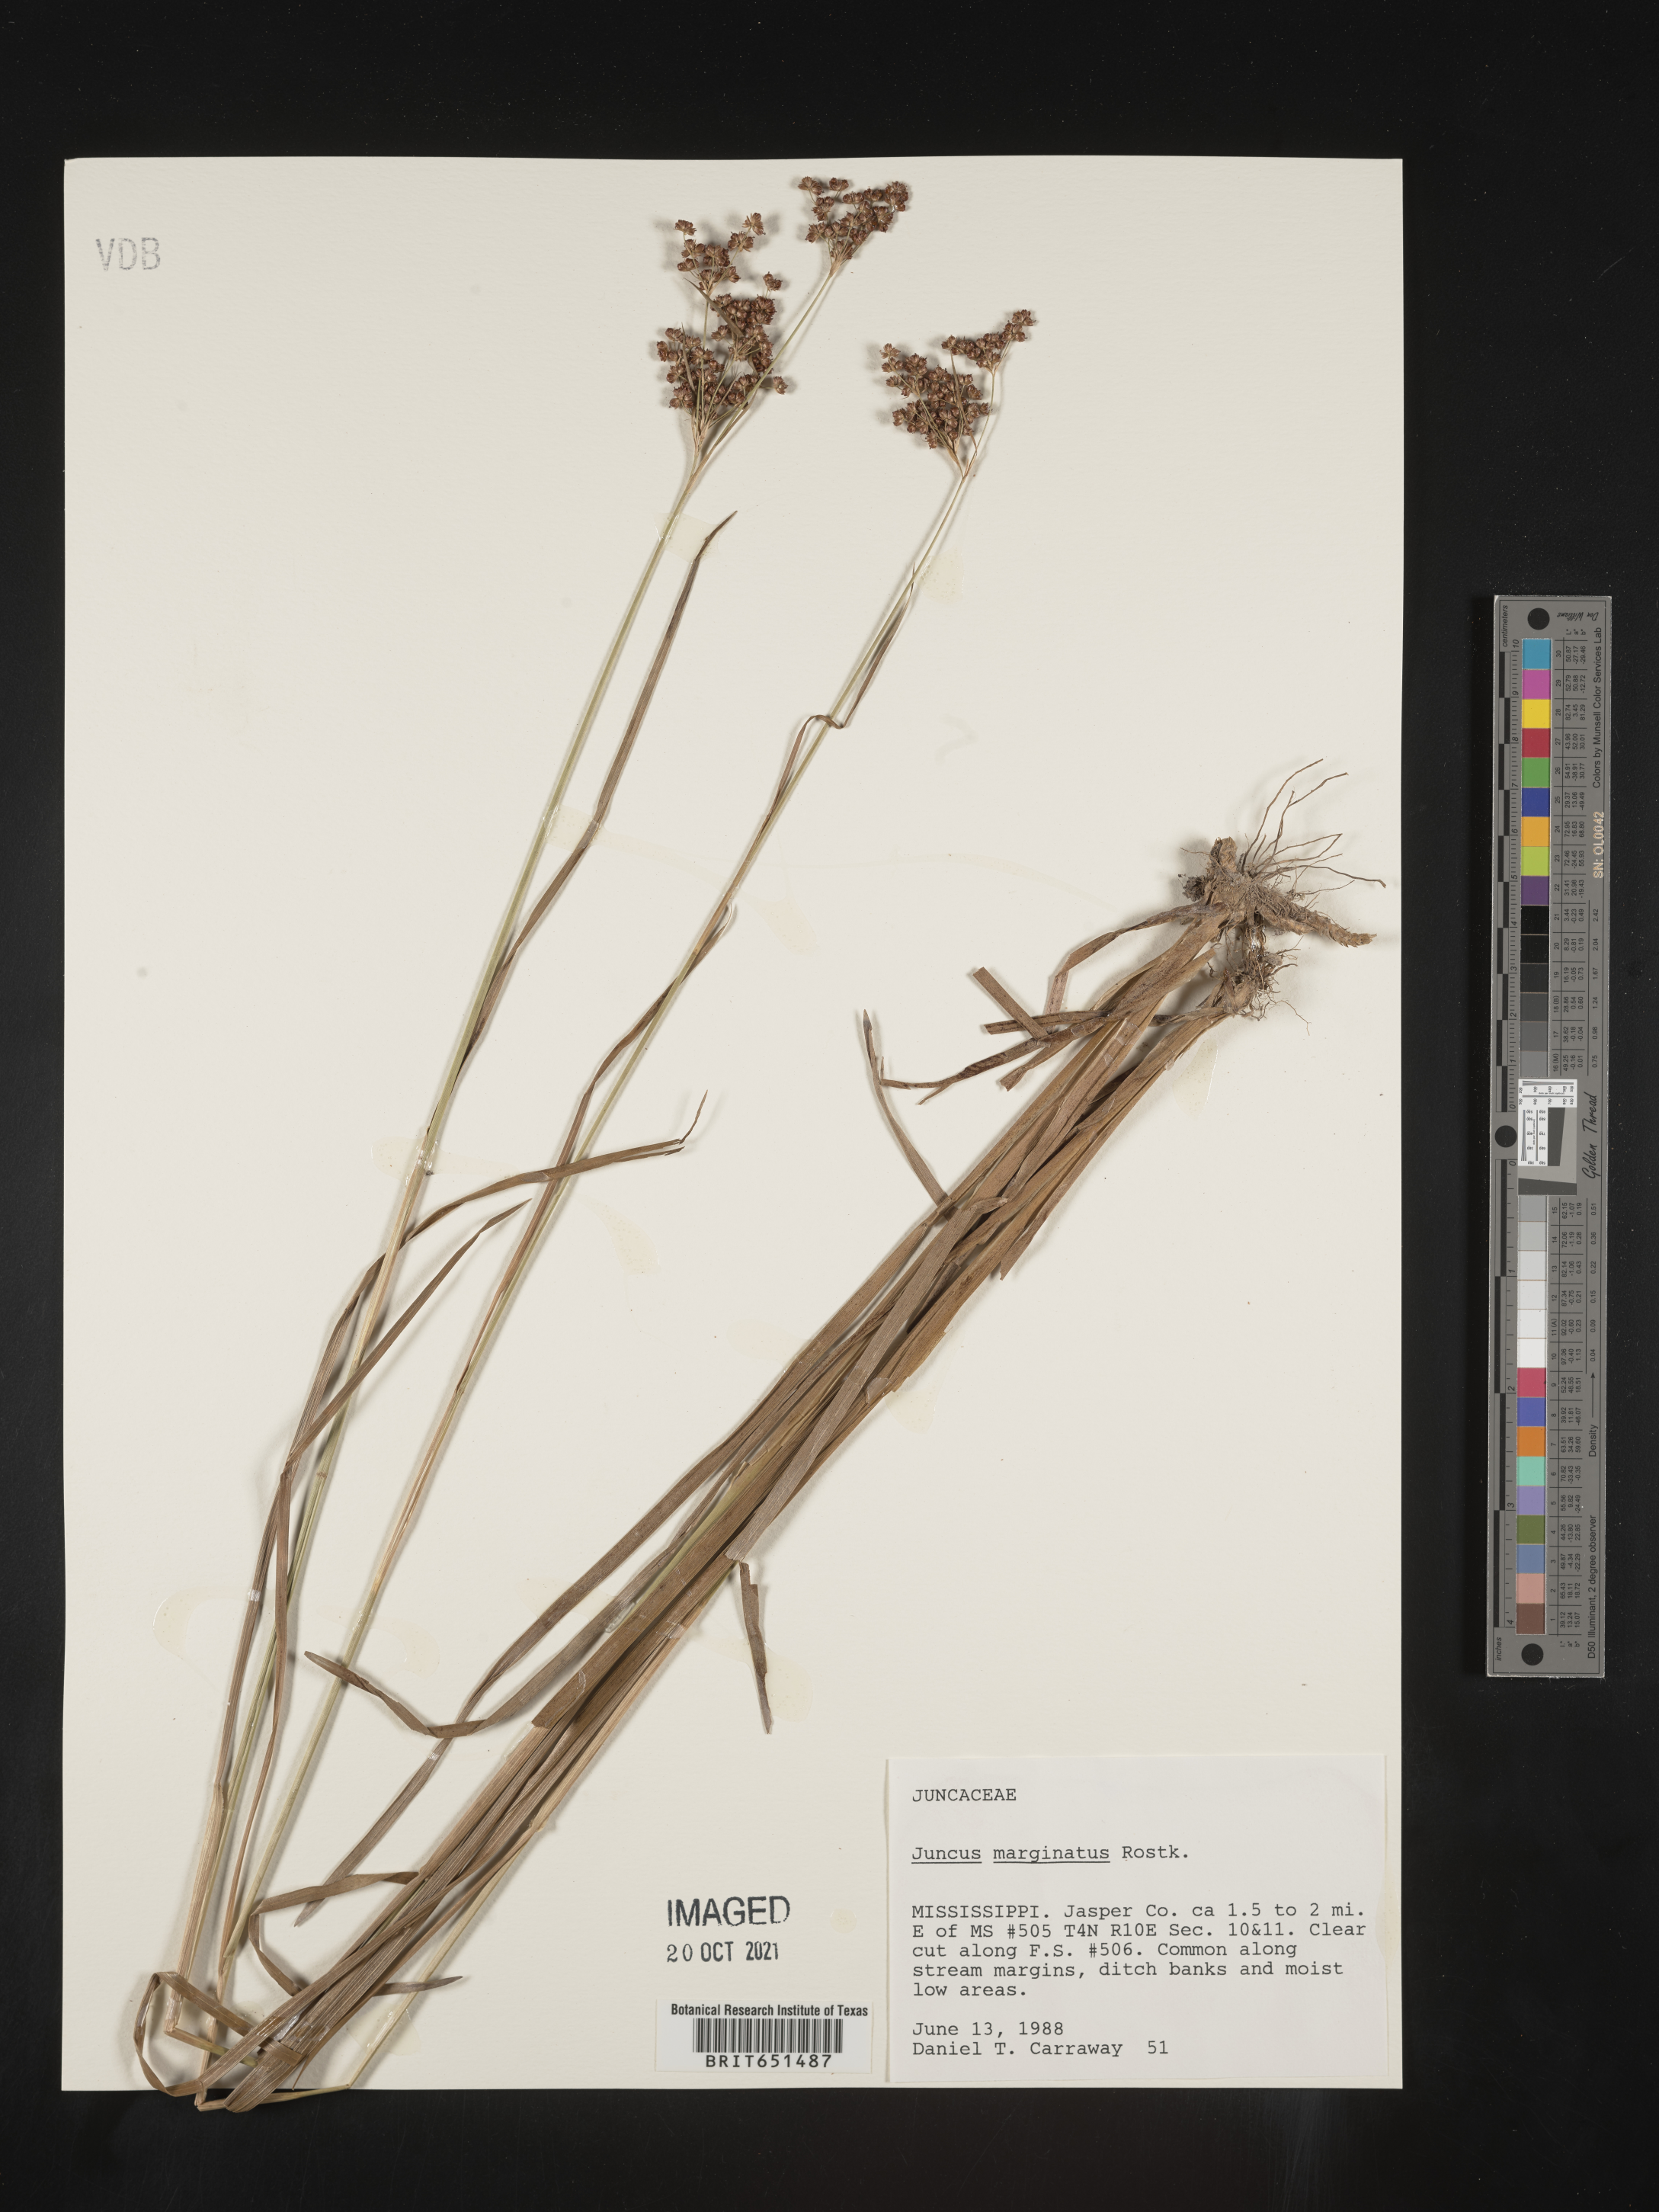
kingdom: Plantae
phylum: Tracheophyta
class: Liliopsida
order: Poales
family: Juncaceae
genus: Juncus
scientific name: Juncus marginatus
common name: Grass-leaf rush
